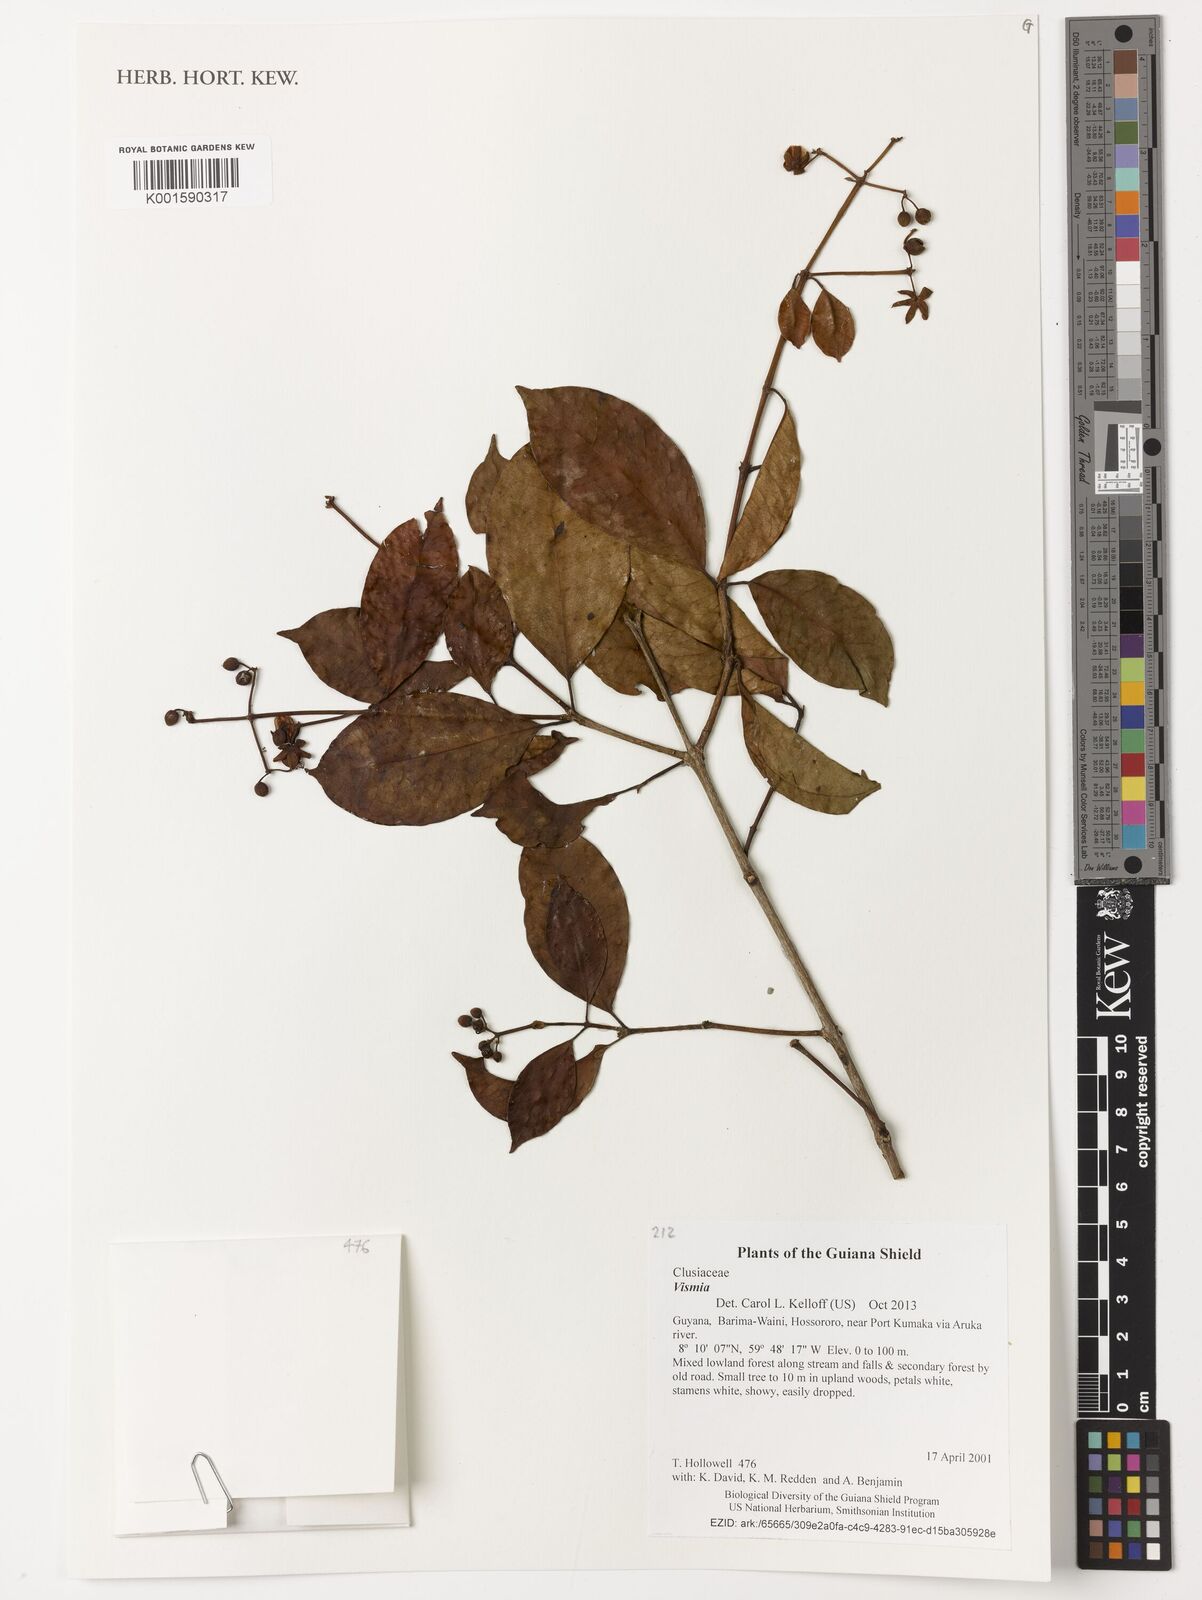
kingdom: Plantae
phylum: Tracheophyta
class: Magnoliopsida
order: Malpighiales
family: Hypericaceae
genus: Vismia
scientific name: Vismia
